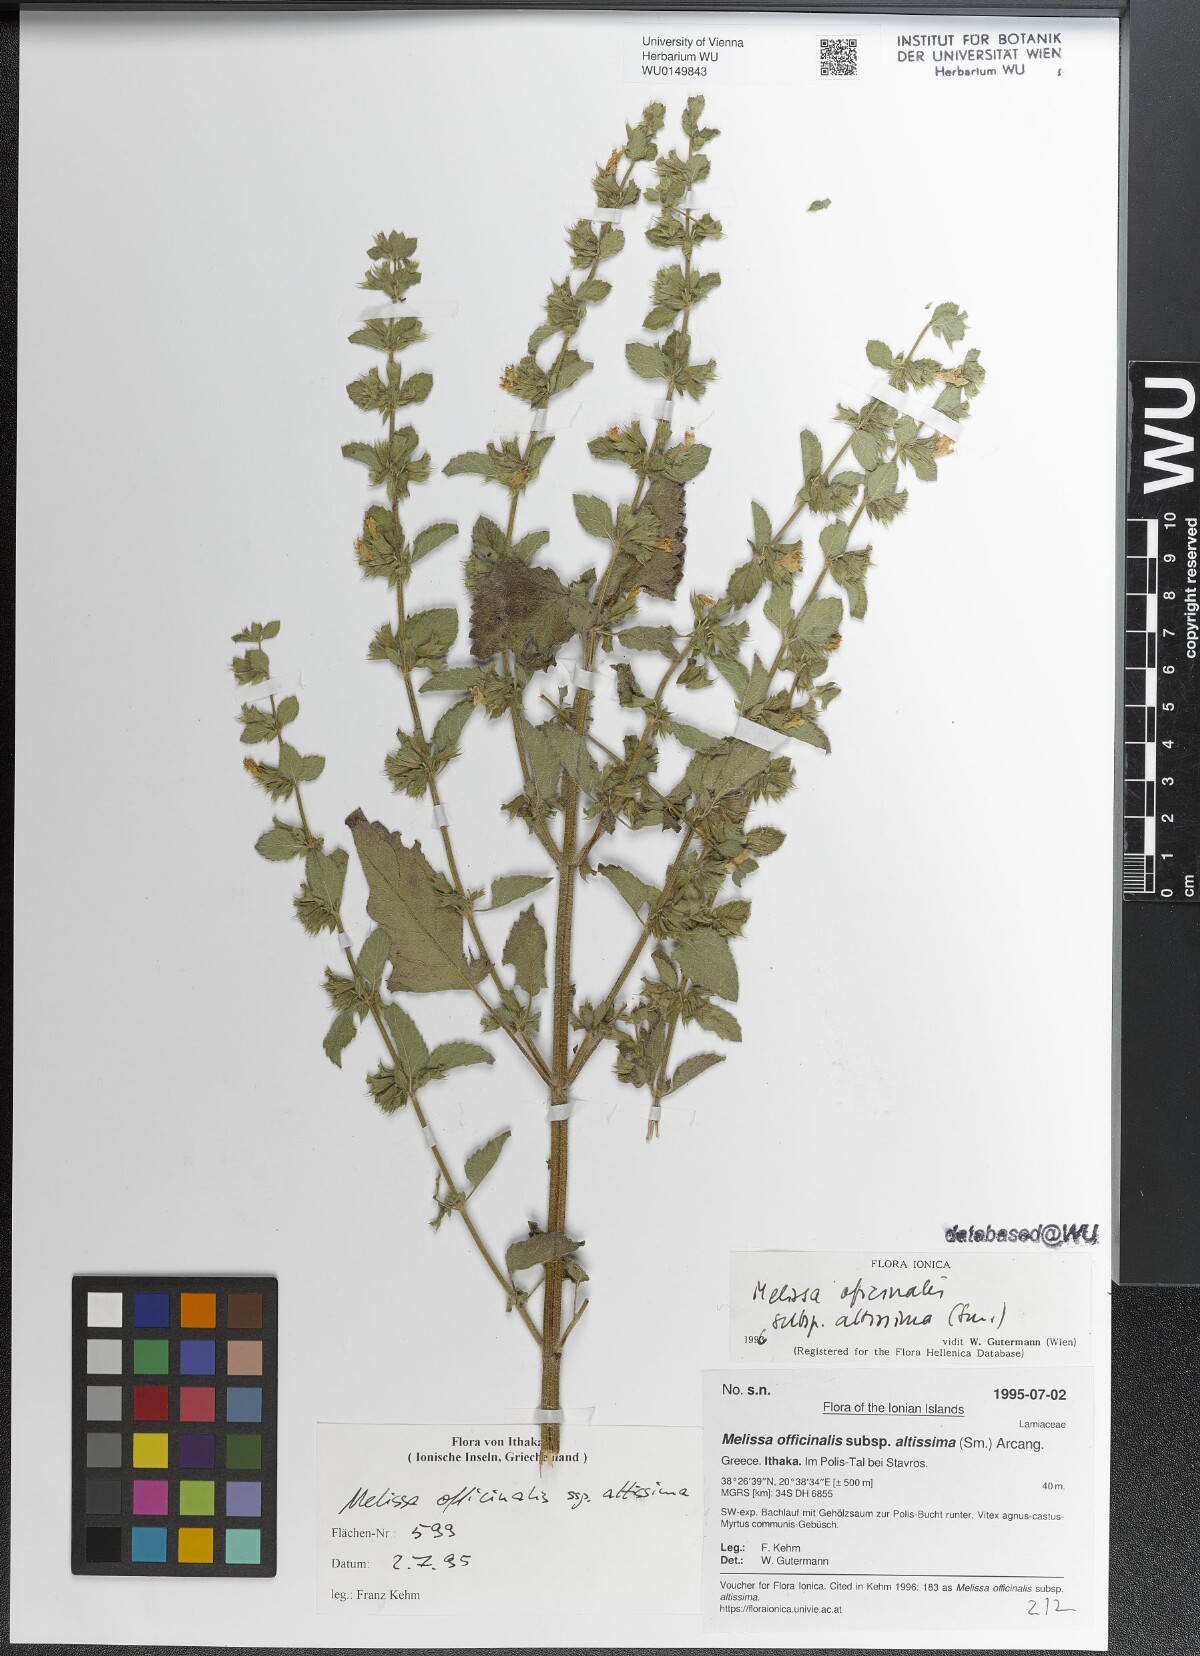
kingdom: Plantae
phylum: Tracheophyta
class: Magnoliopsida
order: Lamiales
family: Lamiaceae
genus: Melissa
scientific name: Melissa officinalis
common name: Balm
